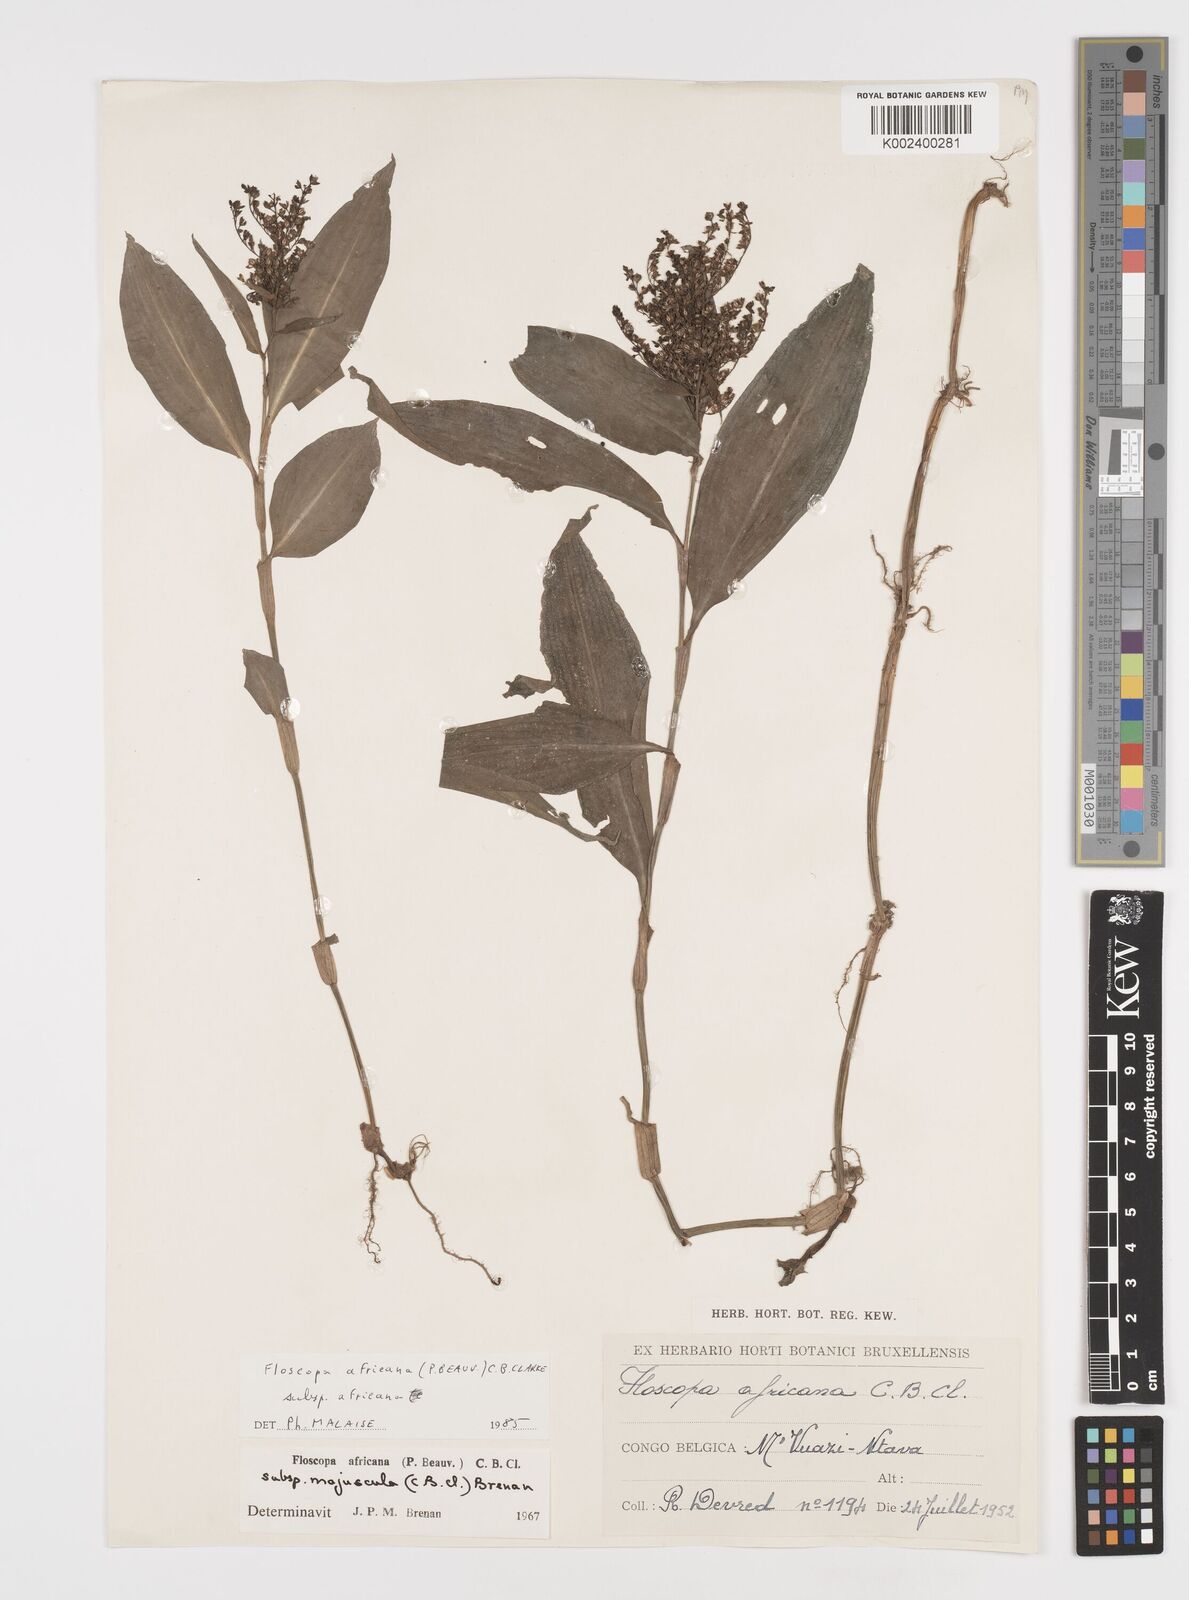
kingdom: Plantae
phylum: Tracheophyta
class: Liliopsida
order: Commelinales
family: Commelinaceae
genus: Floscopa
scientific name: Floscopa africana
